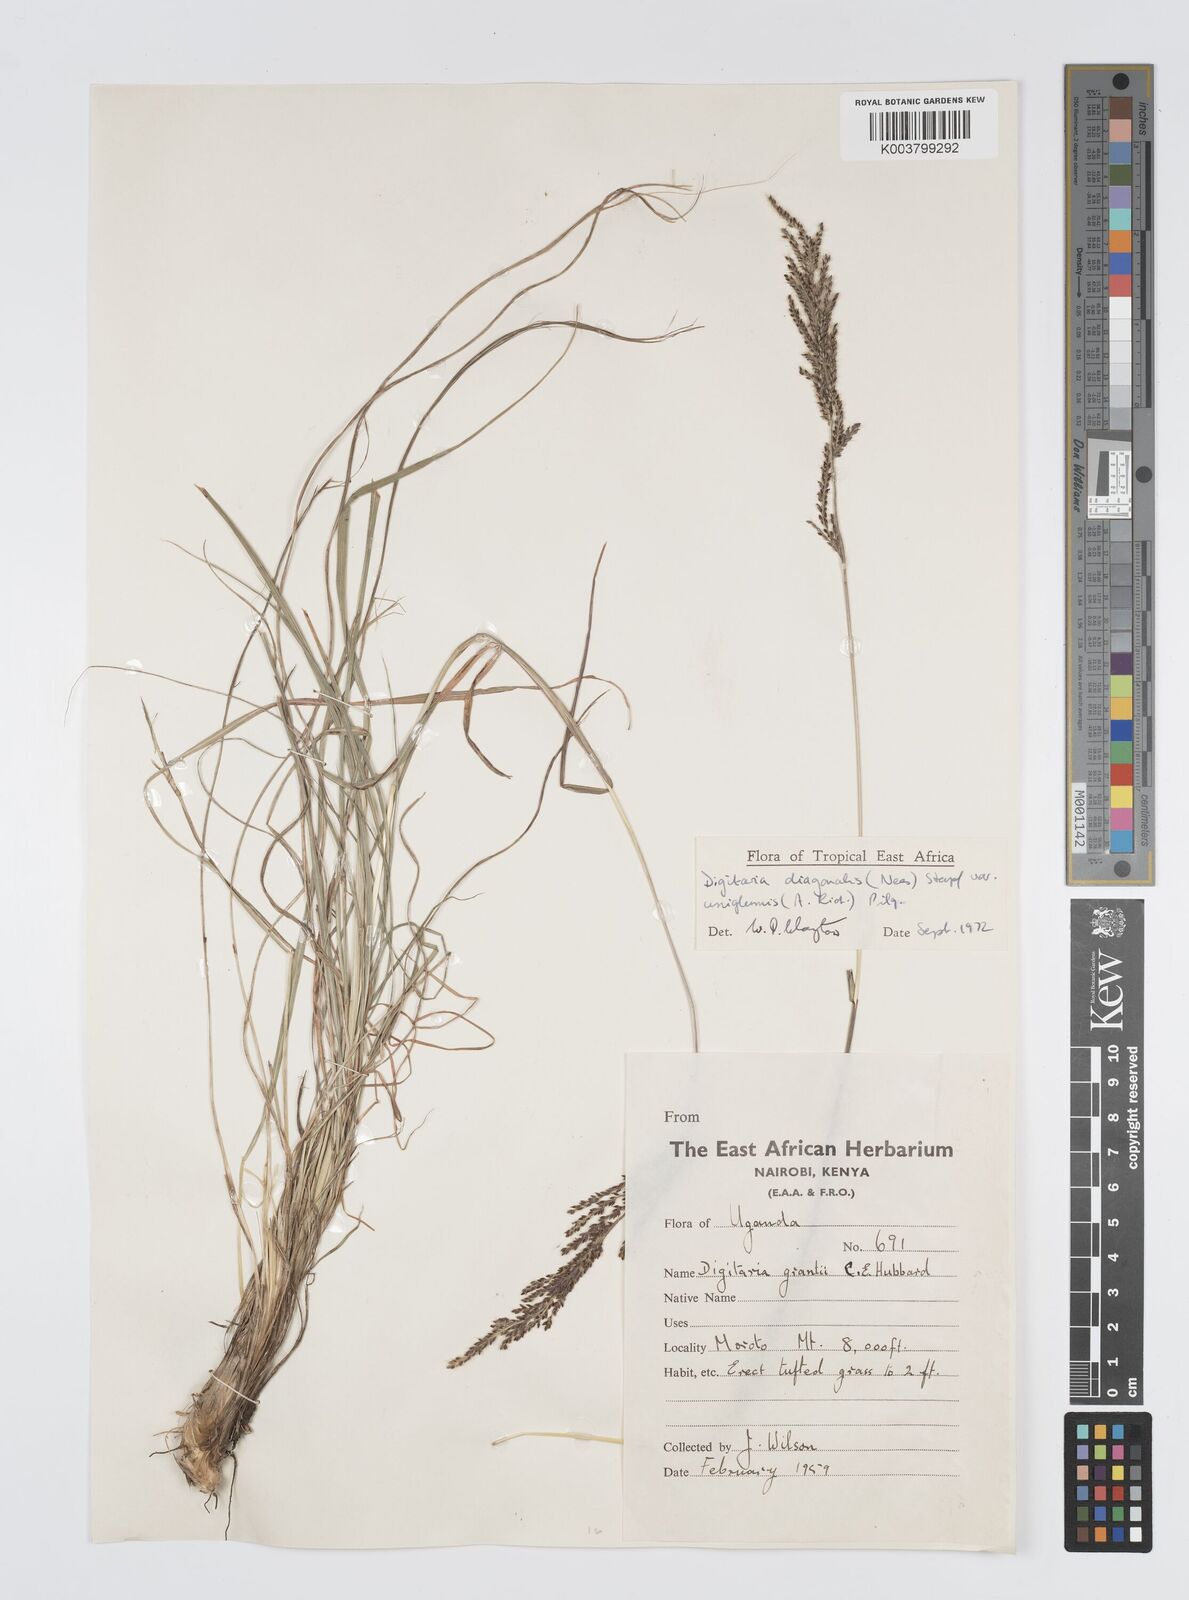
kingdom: Plantae
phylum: Tracheophyta
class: Liliopsida
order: Poales
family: Poaceae
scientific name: Poaceae
